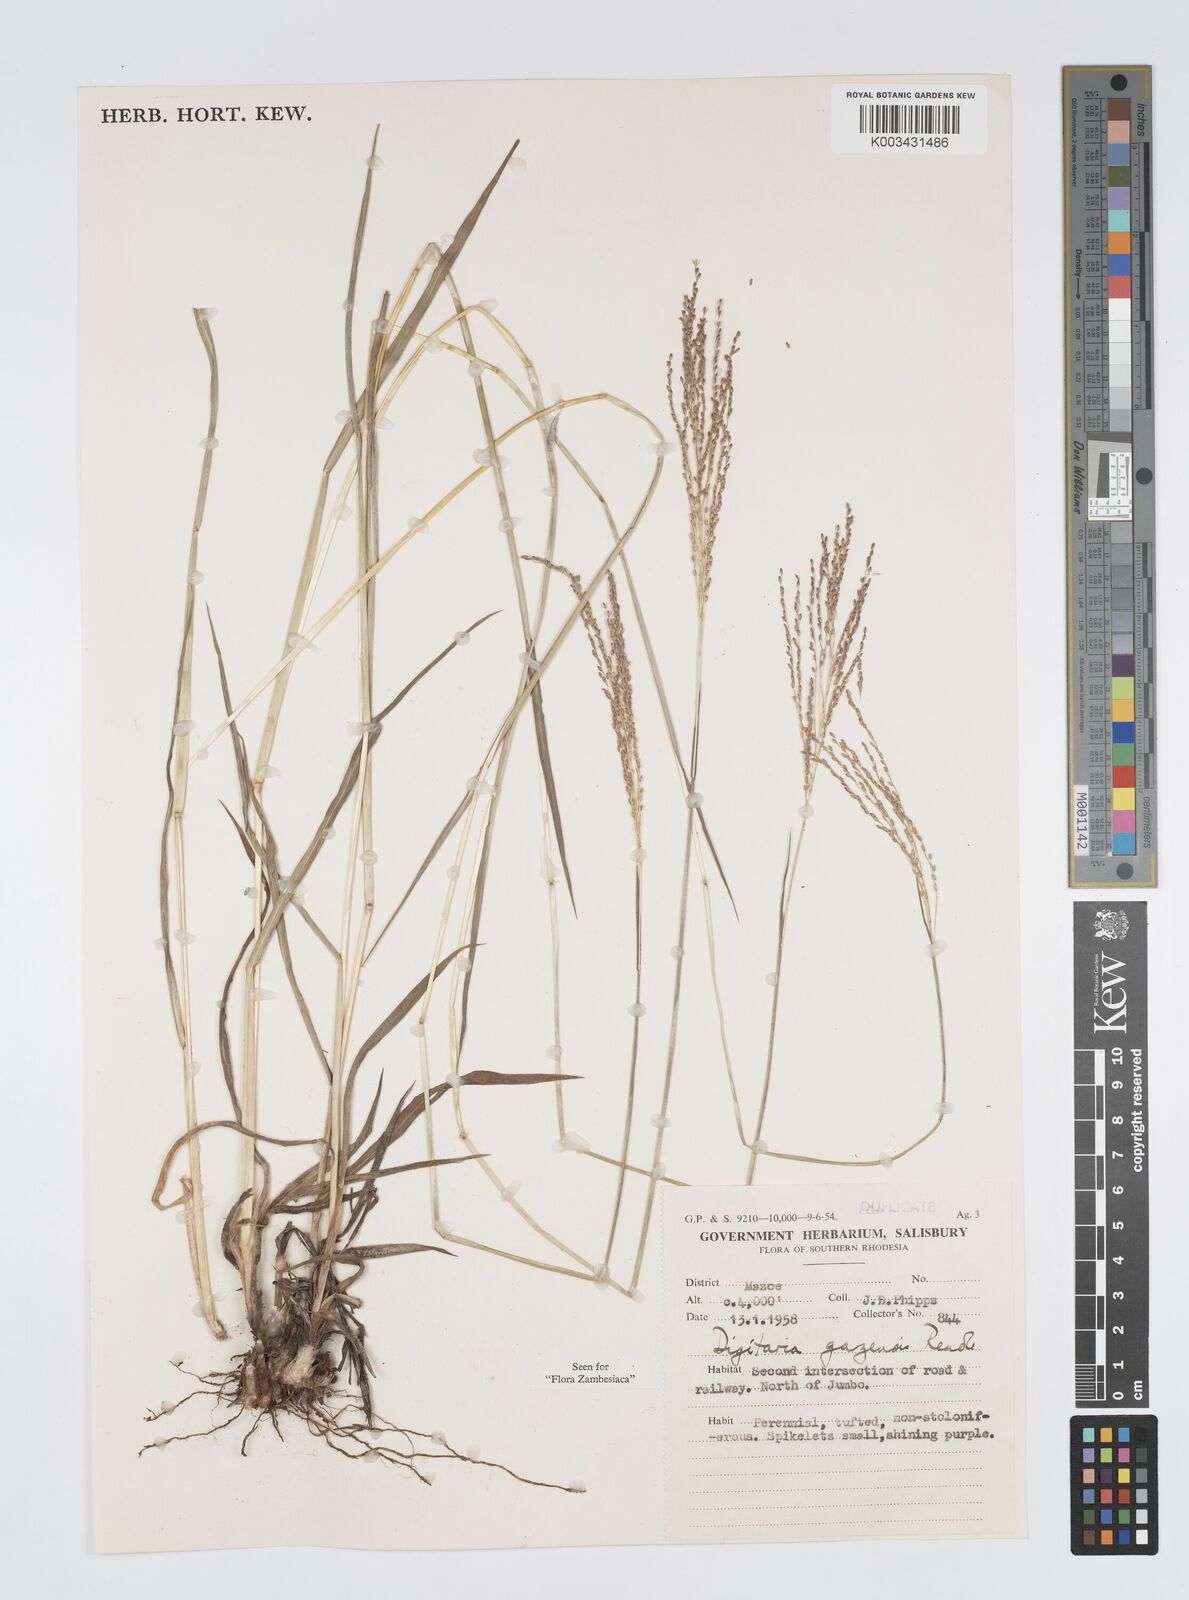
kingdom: Plantae
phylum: Tracheophyta
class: Liliopsida
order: Poales
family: Poaceae
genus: Digitaria
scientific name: Digitaria gazensis
